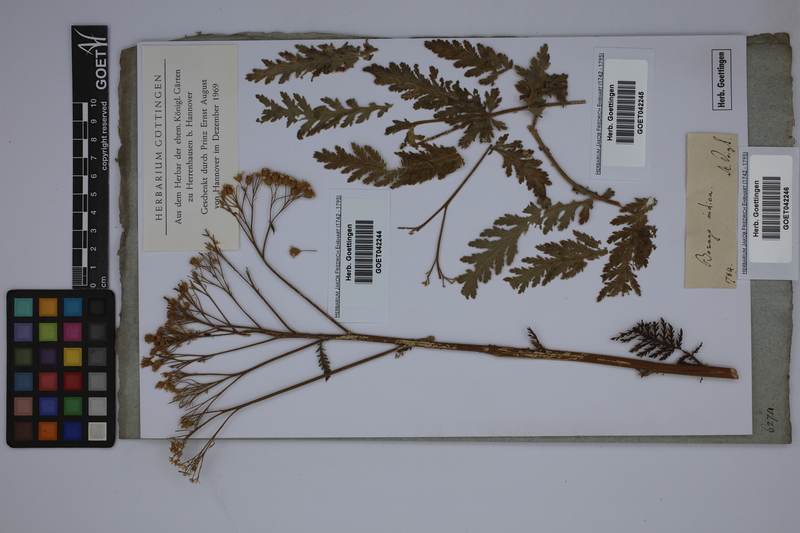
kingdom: Plantae
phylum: Tracheophyta
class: Magnoliopsida
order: Boraginales
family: Boraginaceae
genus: Trichodesma
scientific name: Trichodesma indicum
